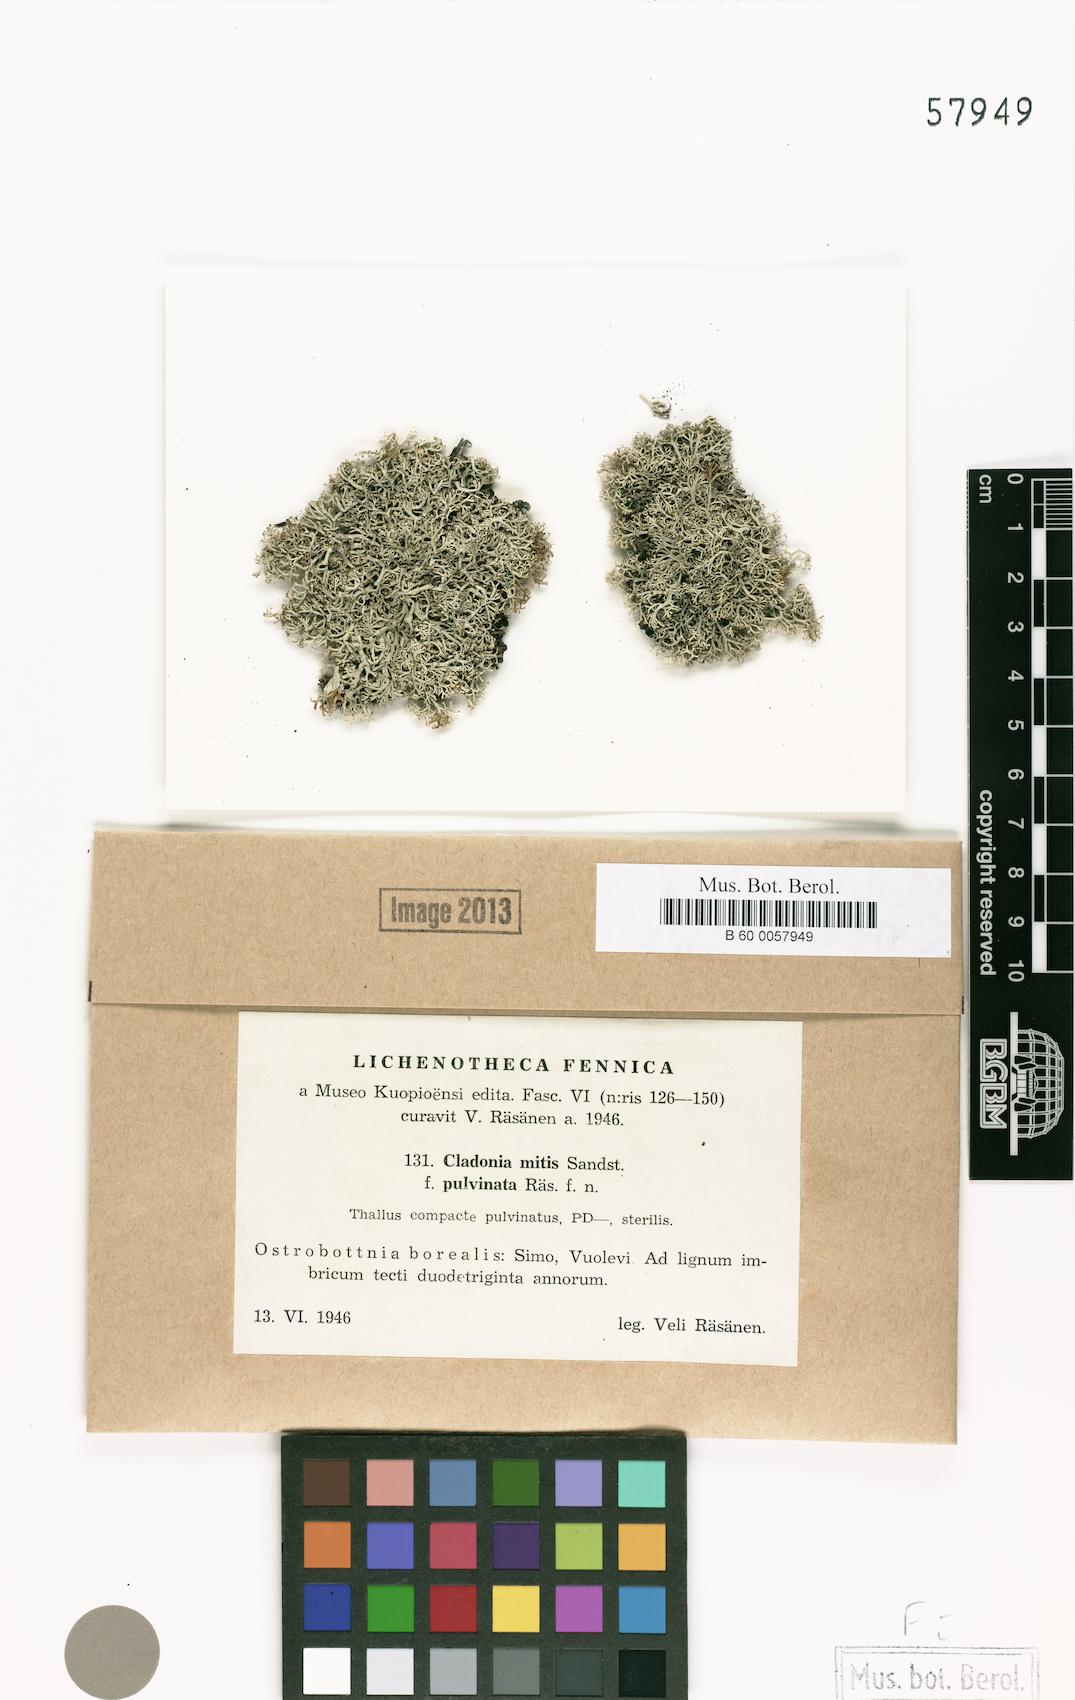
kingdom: Fungi
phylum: Ascomycota
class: Lecanoromycetes
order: Lecanorales
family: Cladoniaceae
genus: Cladonia
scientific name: Cladonia mitis
